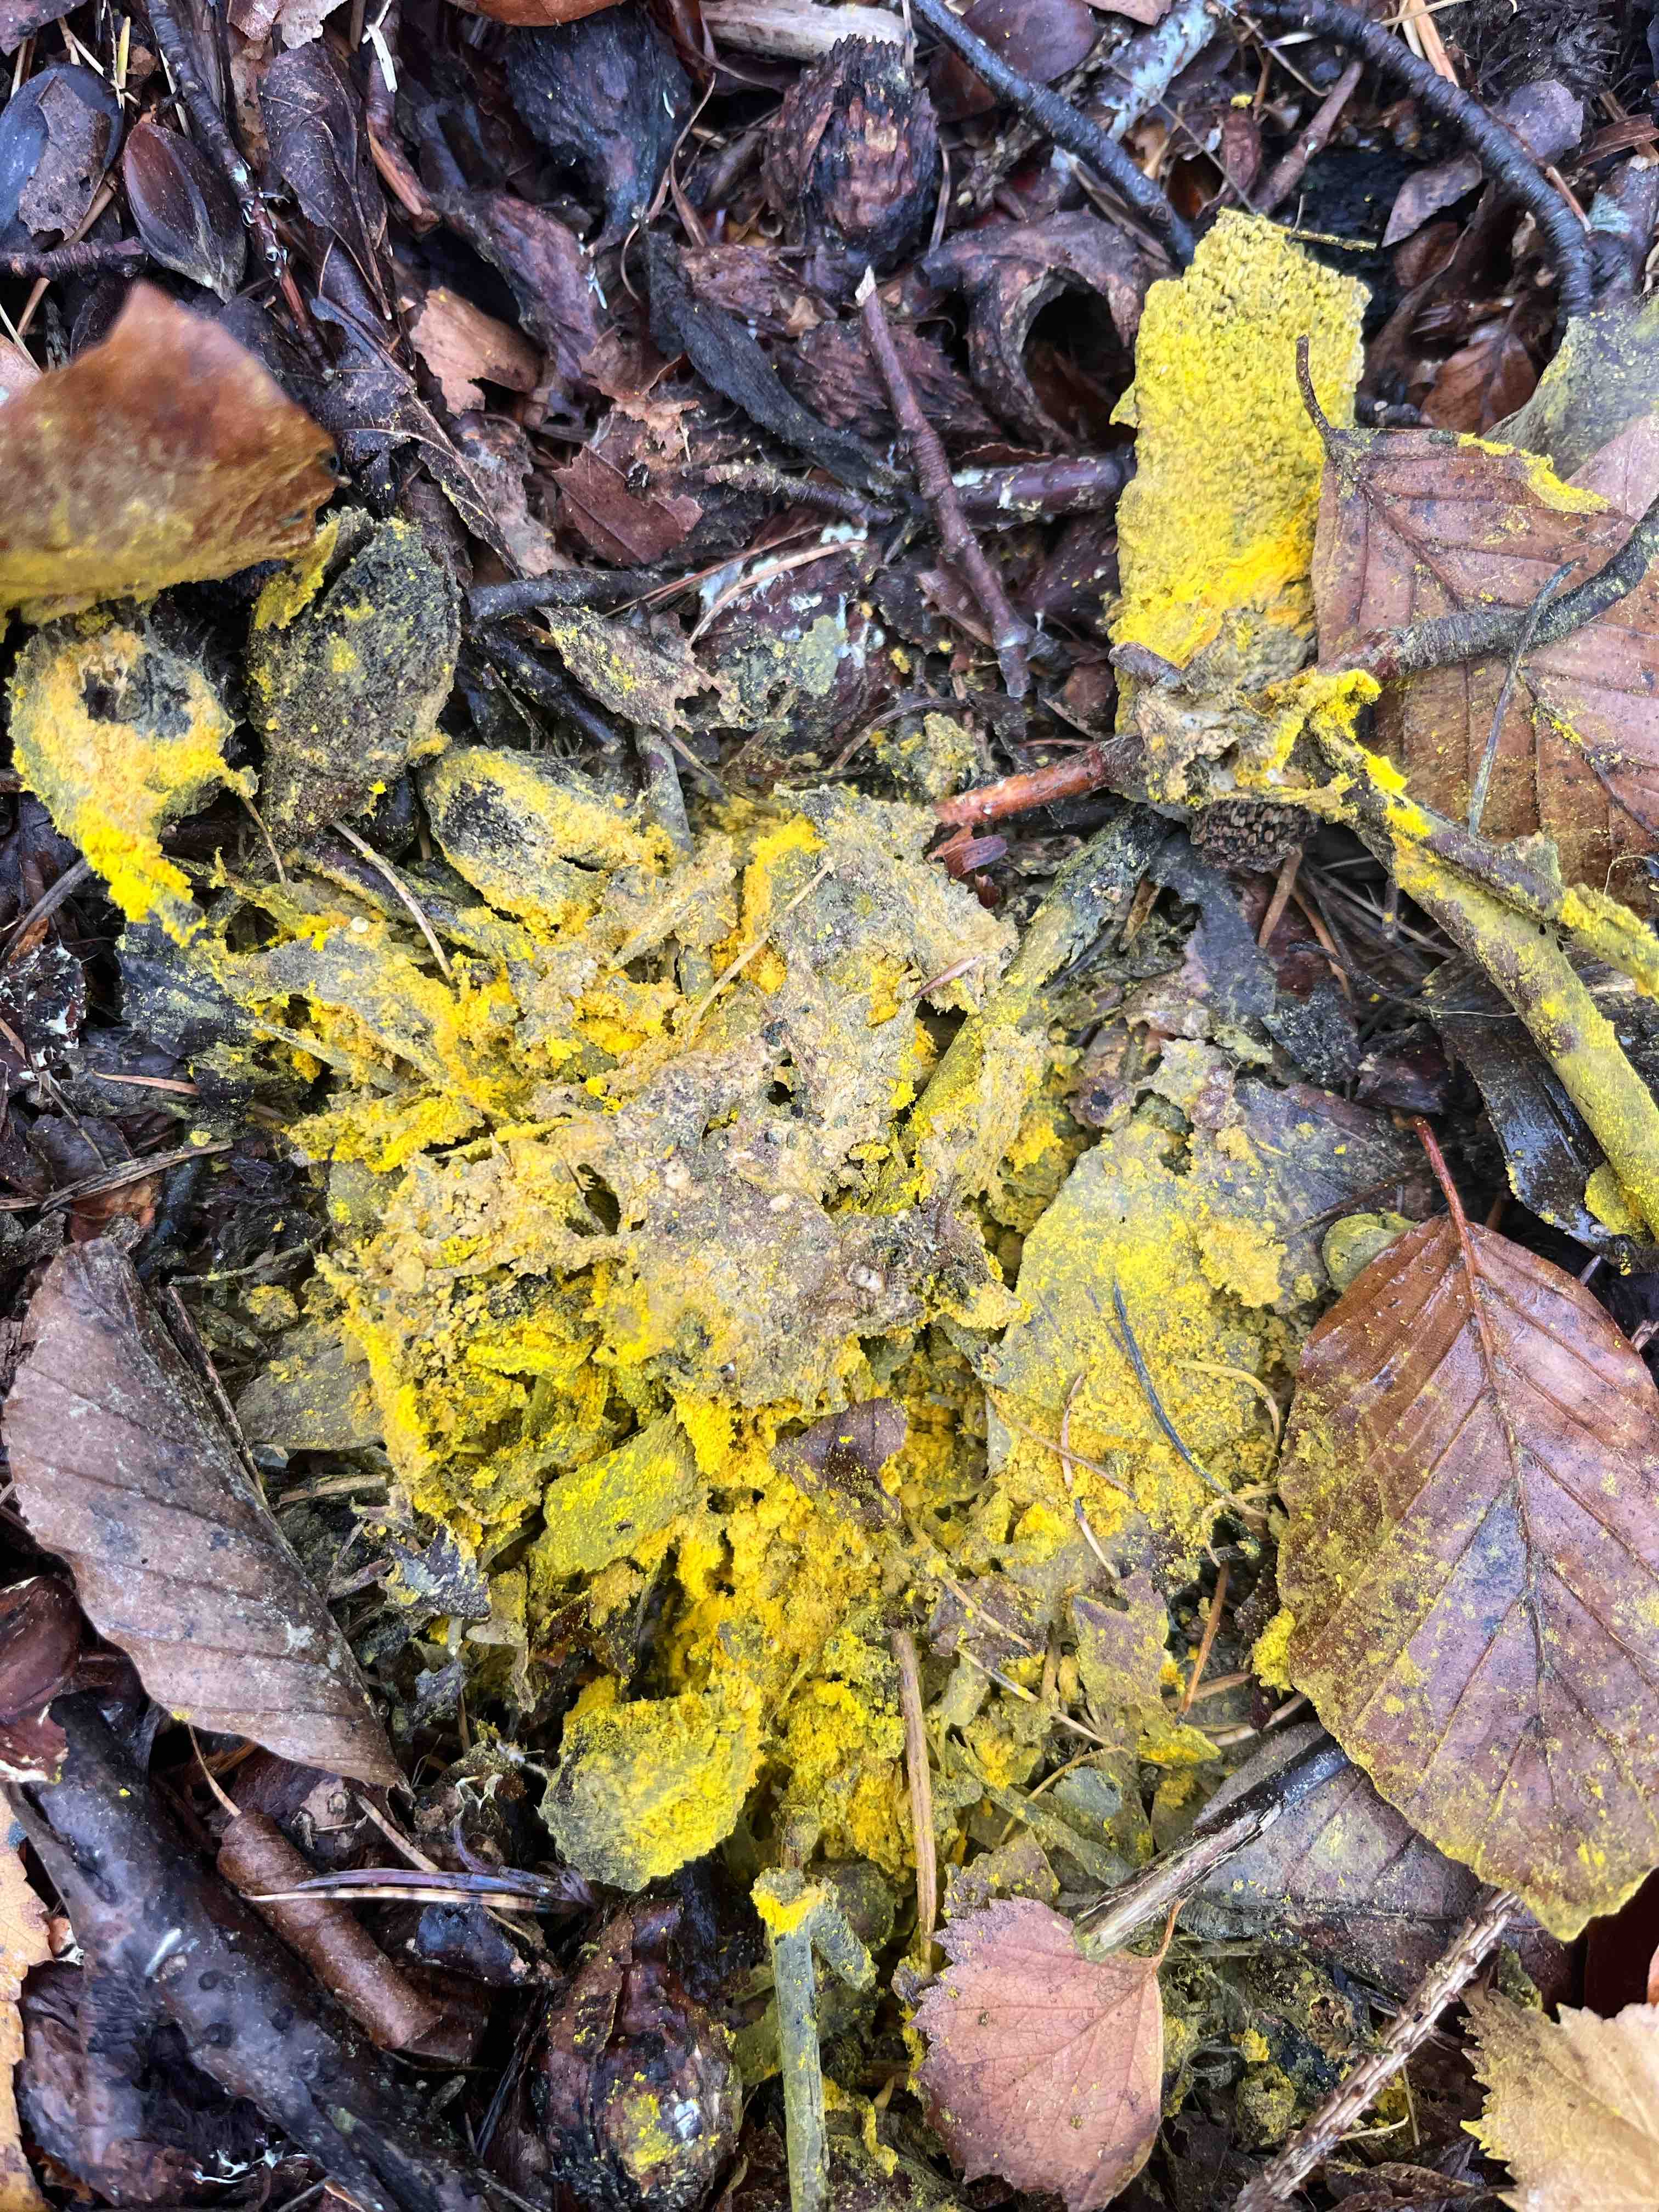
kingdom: Fungi
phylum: Ascomycota
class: Sordariomycetes
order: Hypocreales
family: Hypocreaceae
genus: Hypomyces
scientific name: Hypomyces
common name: snylteskorpe
